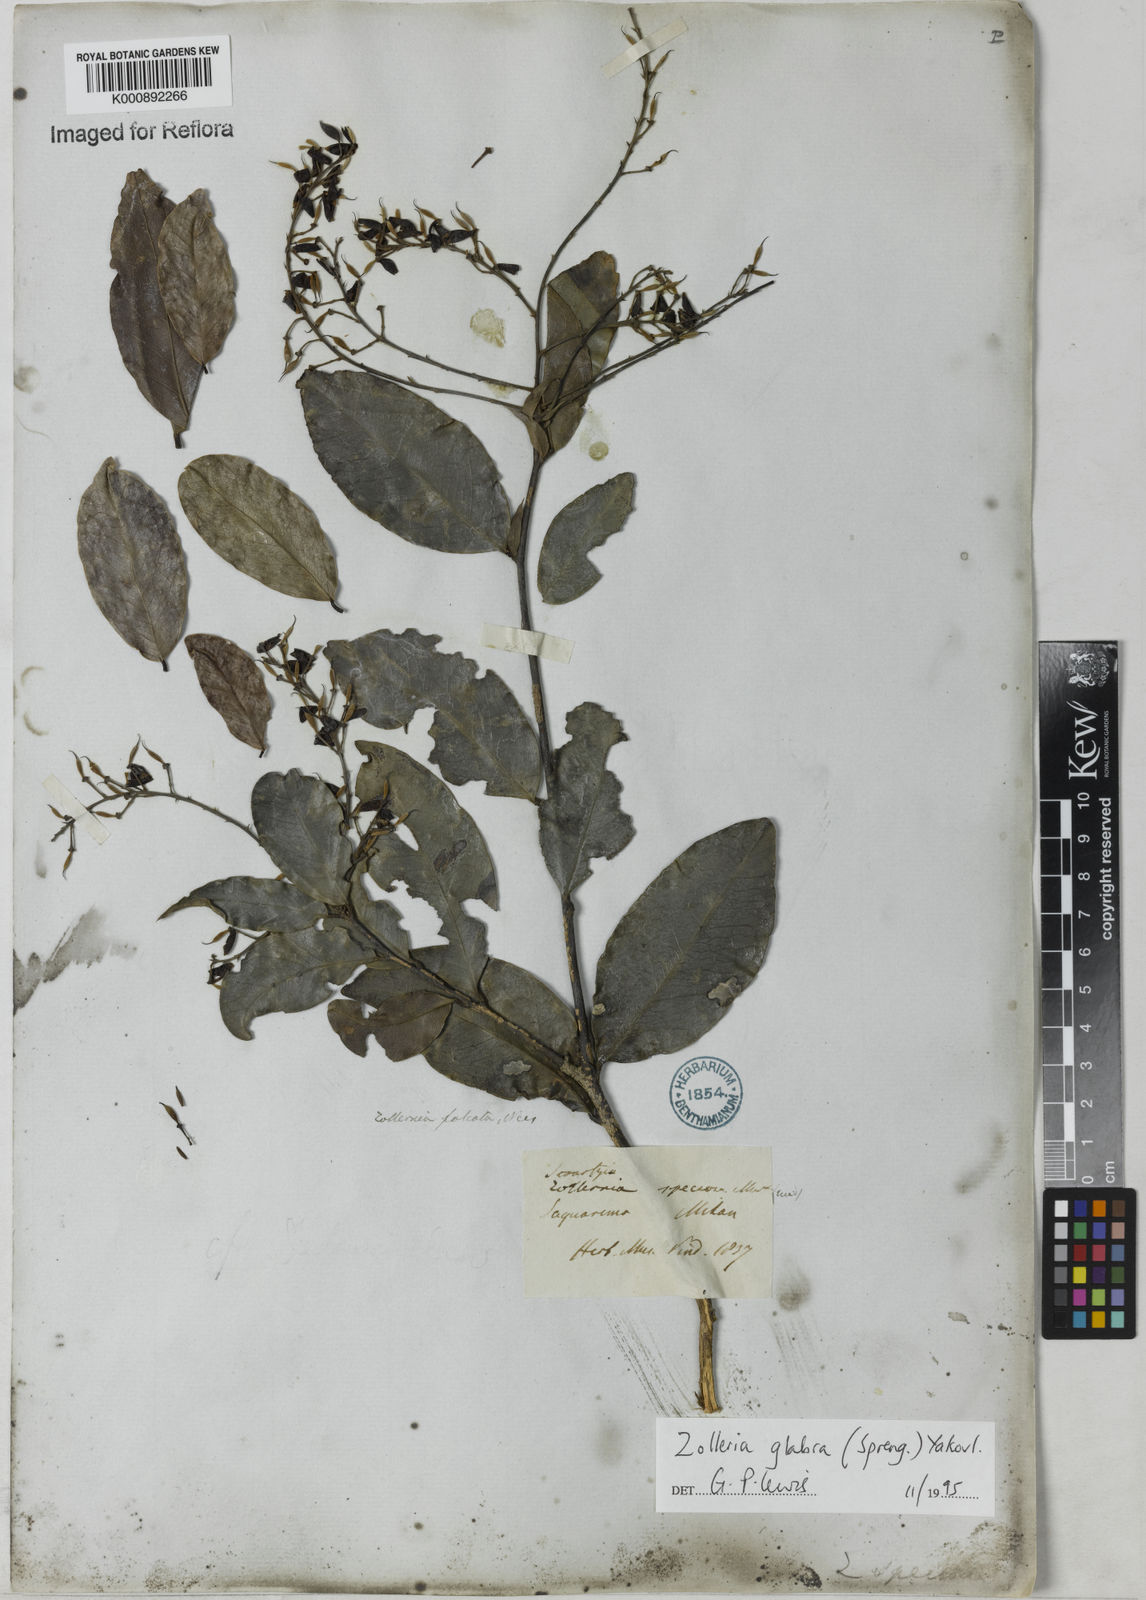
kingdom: Plantae
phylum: Tracheophyta
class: Magnoliopsida
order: Fabales
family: Fabaceae
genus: Zollernia
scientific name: Zollernia glabra
